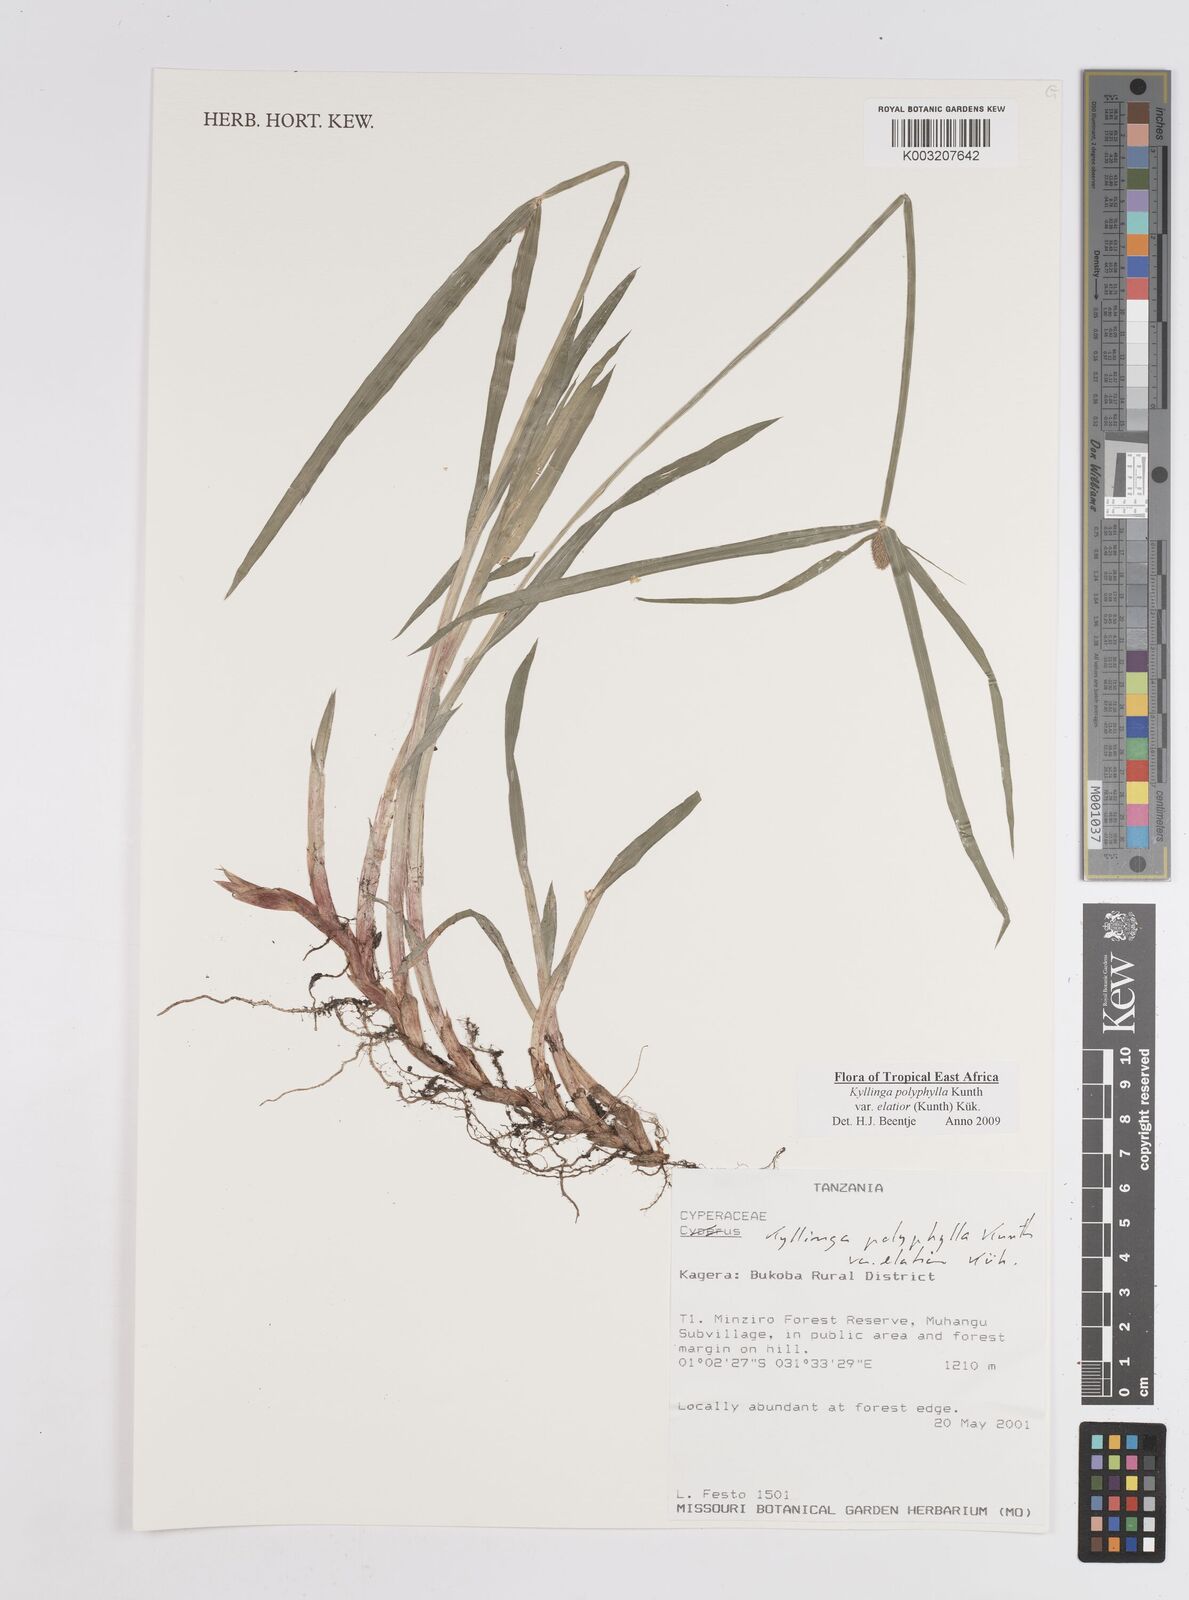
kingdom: Plantae
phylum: Tracheophyta
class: Liliopsida
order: Poales
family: Cyperaceae
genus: Cyperus
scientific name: Cyperus
